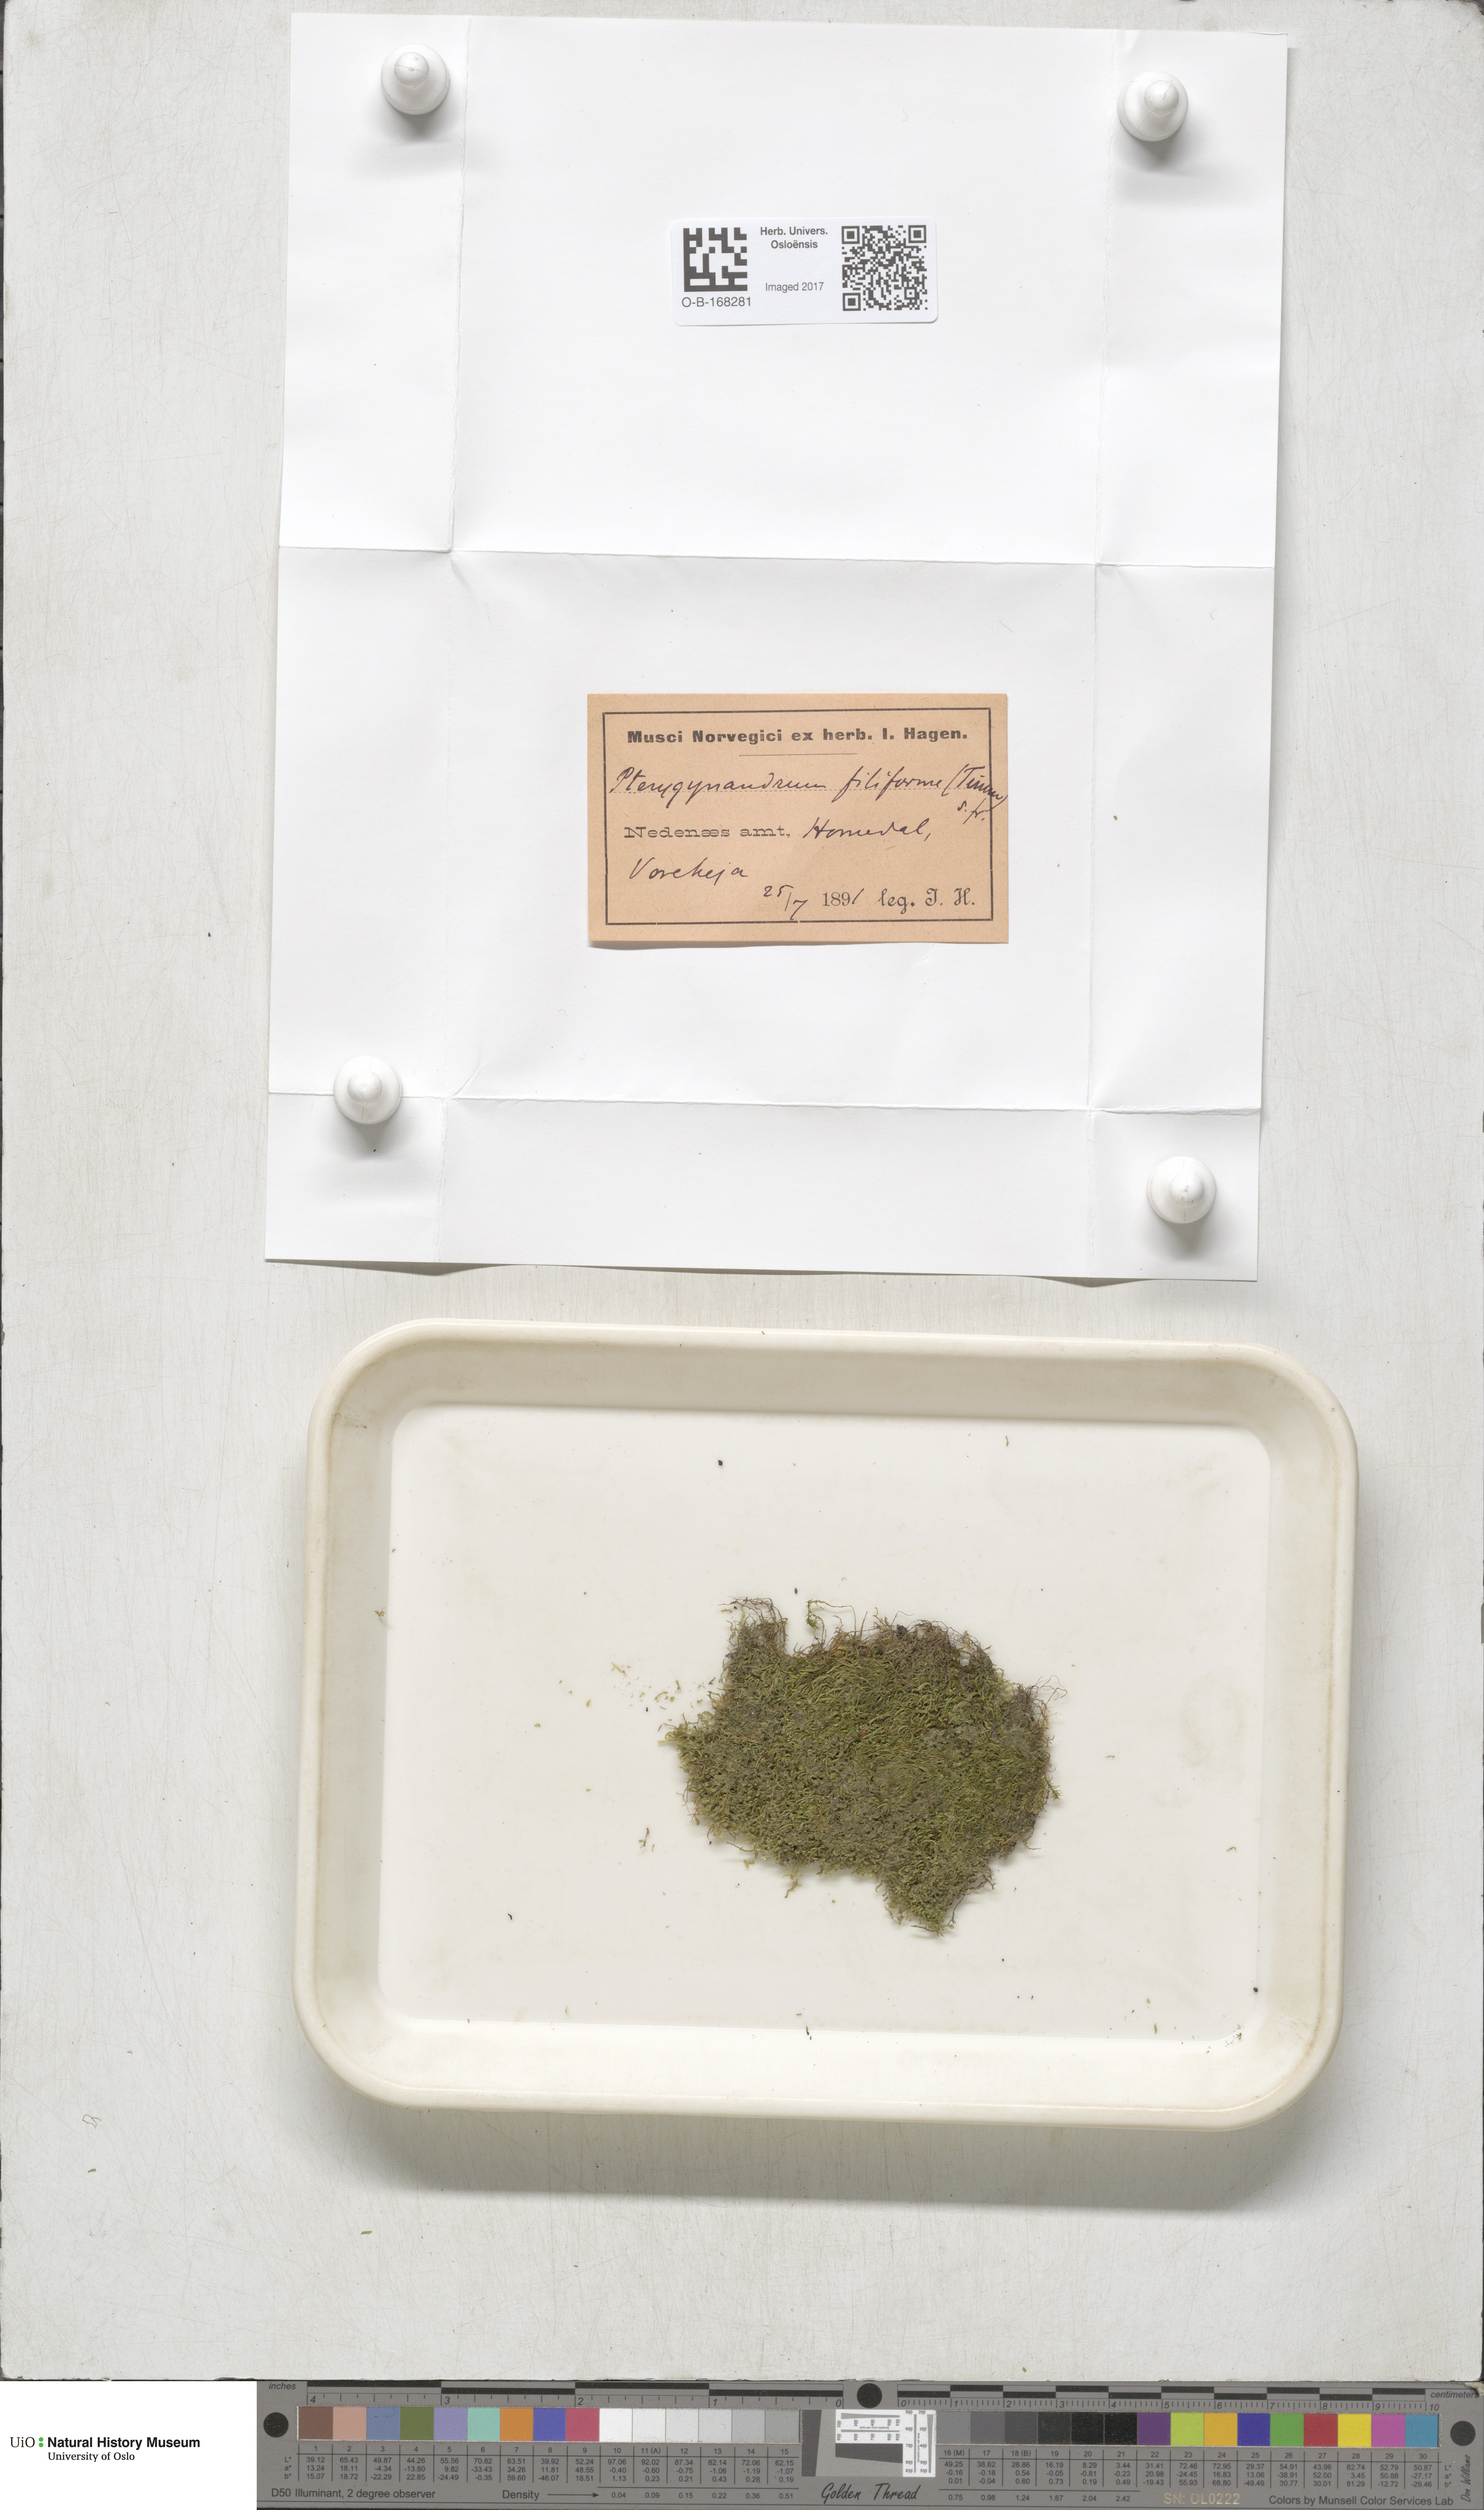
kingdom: Plantae
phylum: Bryophyta
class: Bryopsida
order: Hypnales
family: Pterigynandraceae
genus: Pterigynandrum
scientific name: Pterigynandrum filiforme
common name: Capillary wing moss
